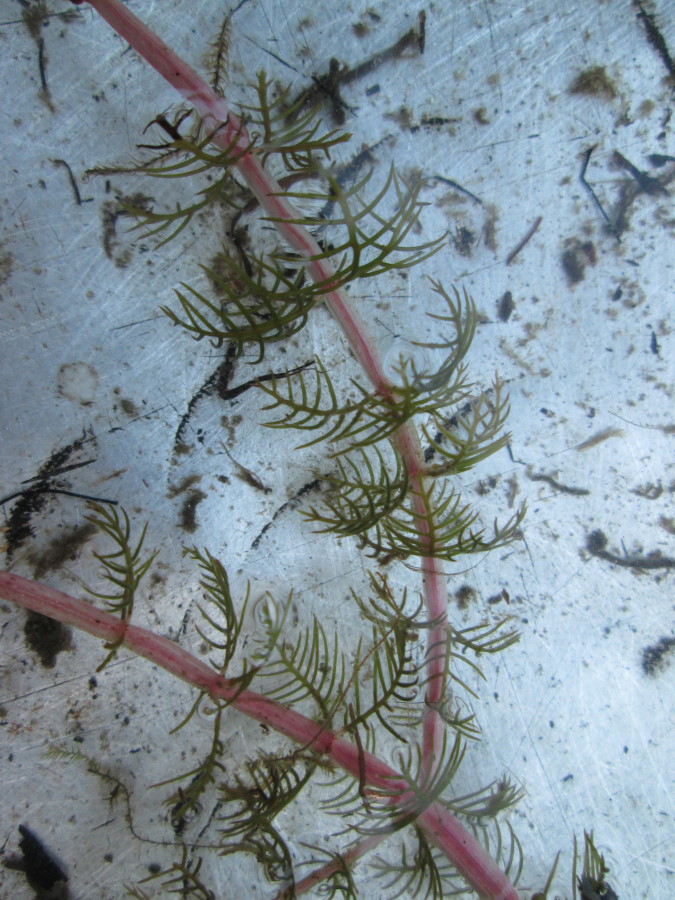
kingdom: Plantae
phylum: Tracheophyta
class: Magnoliopsida
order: Saxifragales
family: Haloragaceae
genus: Myriophyllum
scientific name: Myriophyllum sibiricum
